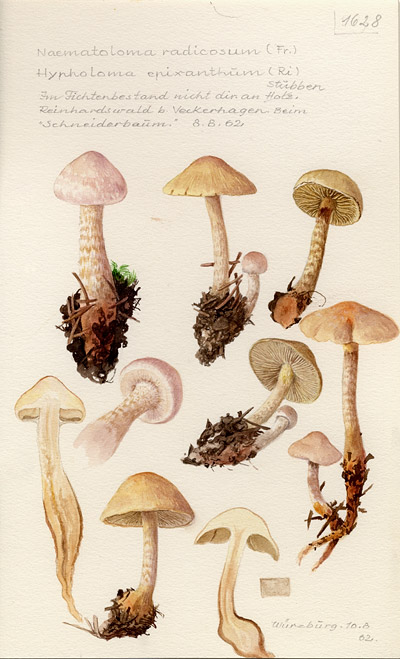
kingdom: Fungi
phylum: Basidiomycota
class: Agaricomycetes
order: Agaricales
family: Strophariaceae
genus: Hypholoma
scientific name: Hypholoma radicosum
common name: Rooting brownie
